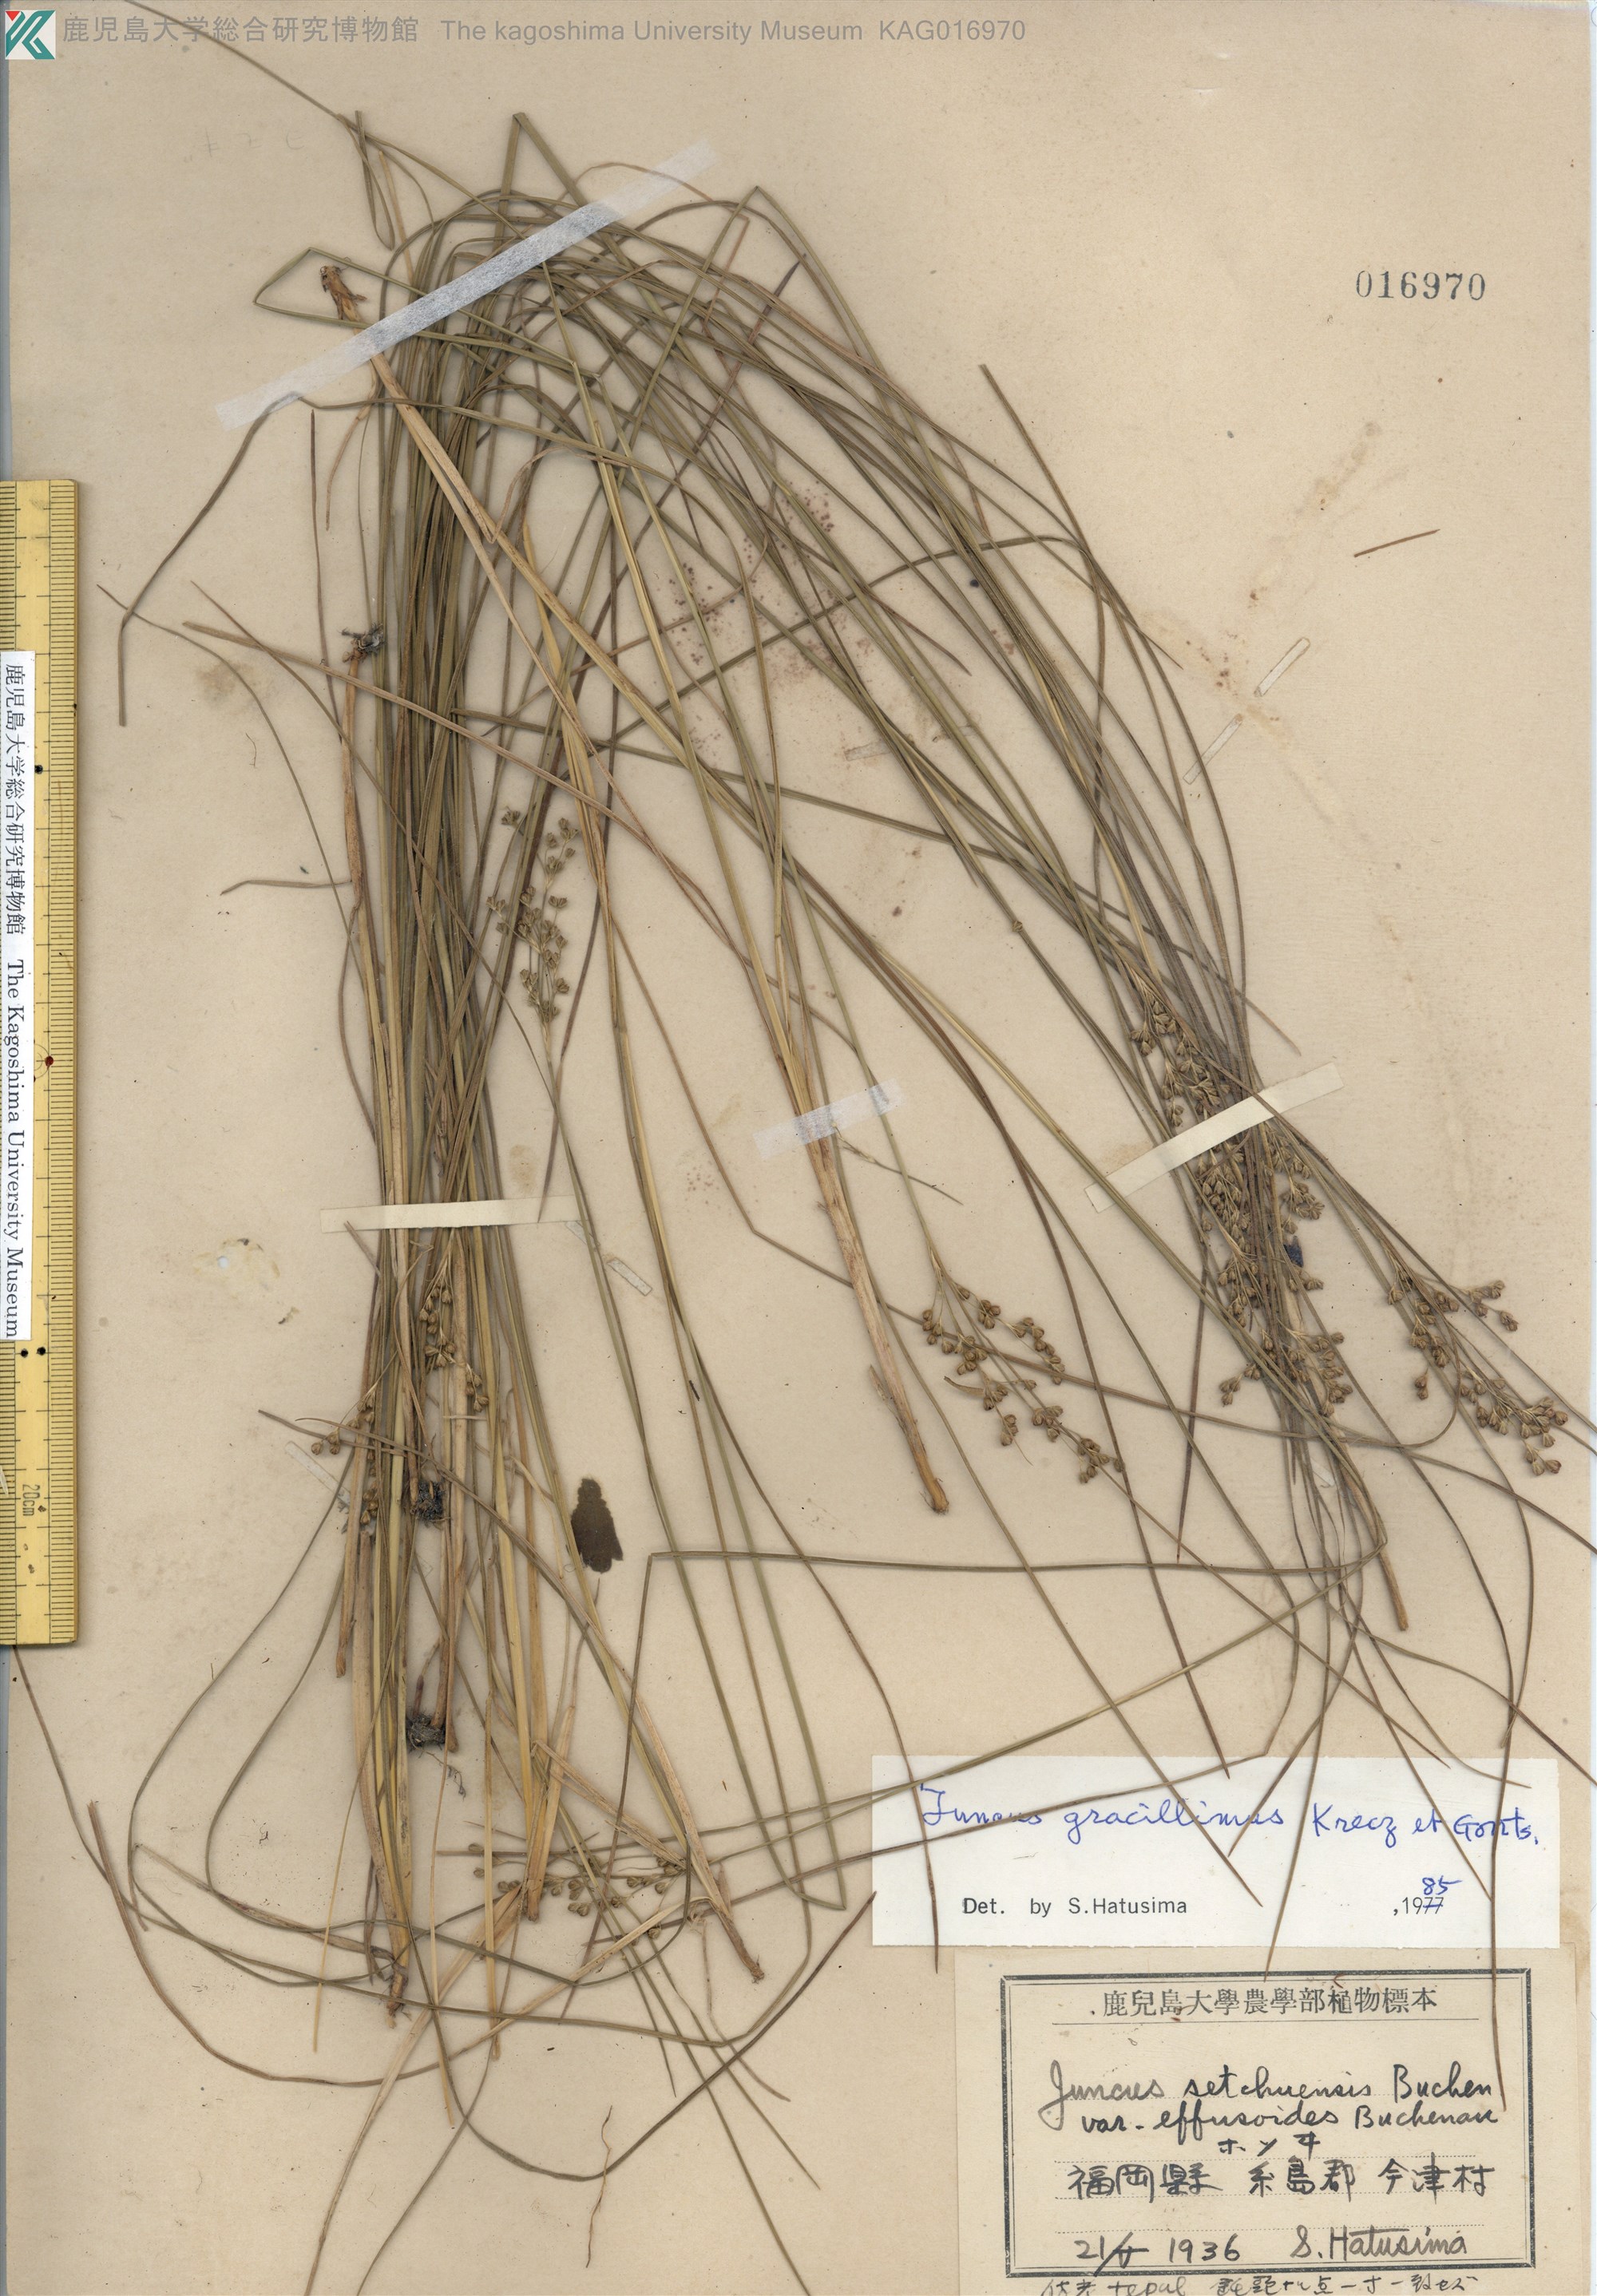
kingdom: Plantae
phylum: Tracheophyta
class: Liliopsida
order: Poales
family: Juncaceae
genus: Juncus
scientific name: Juncus gracillimus
